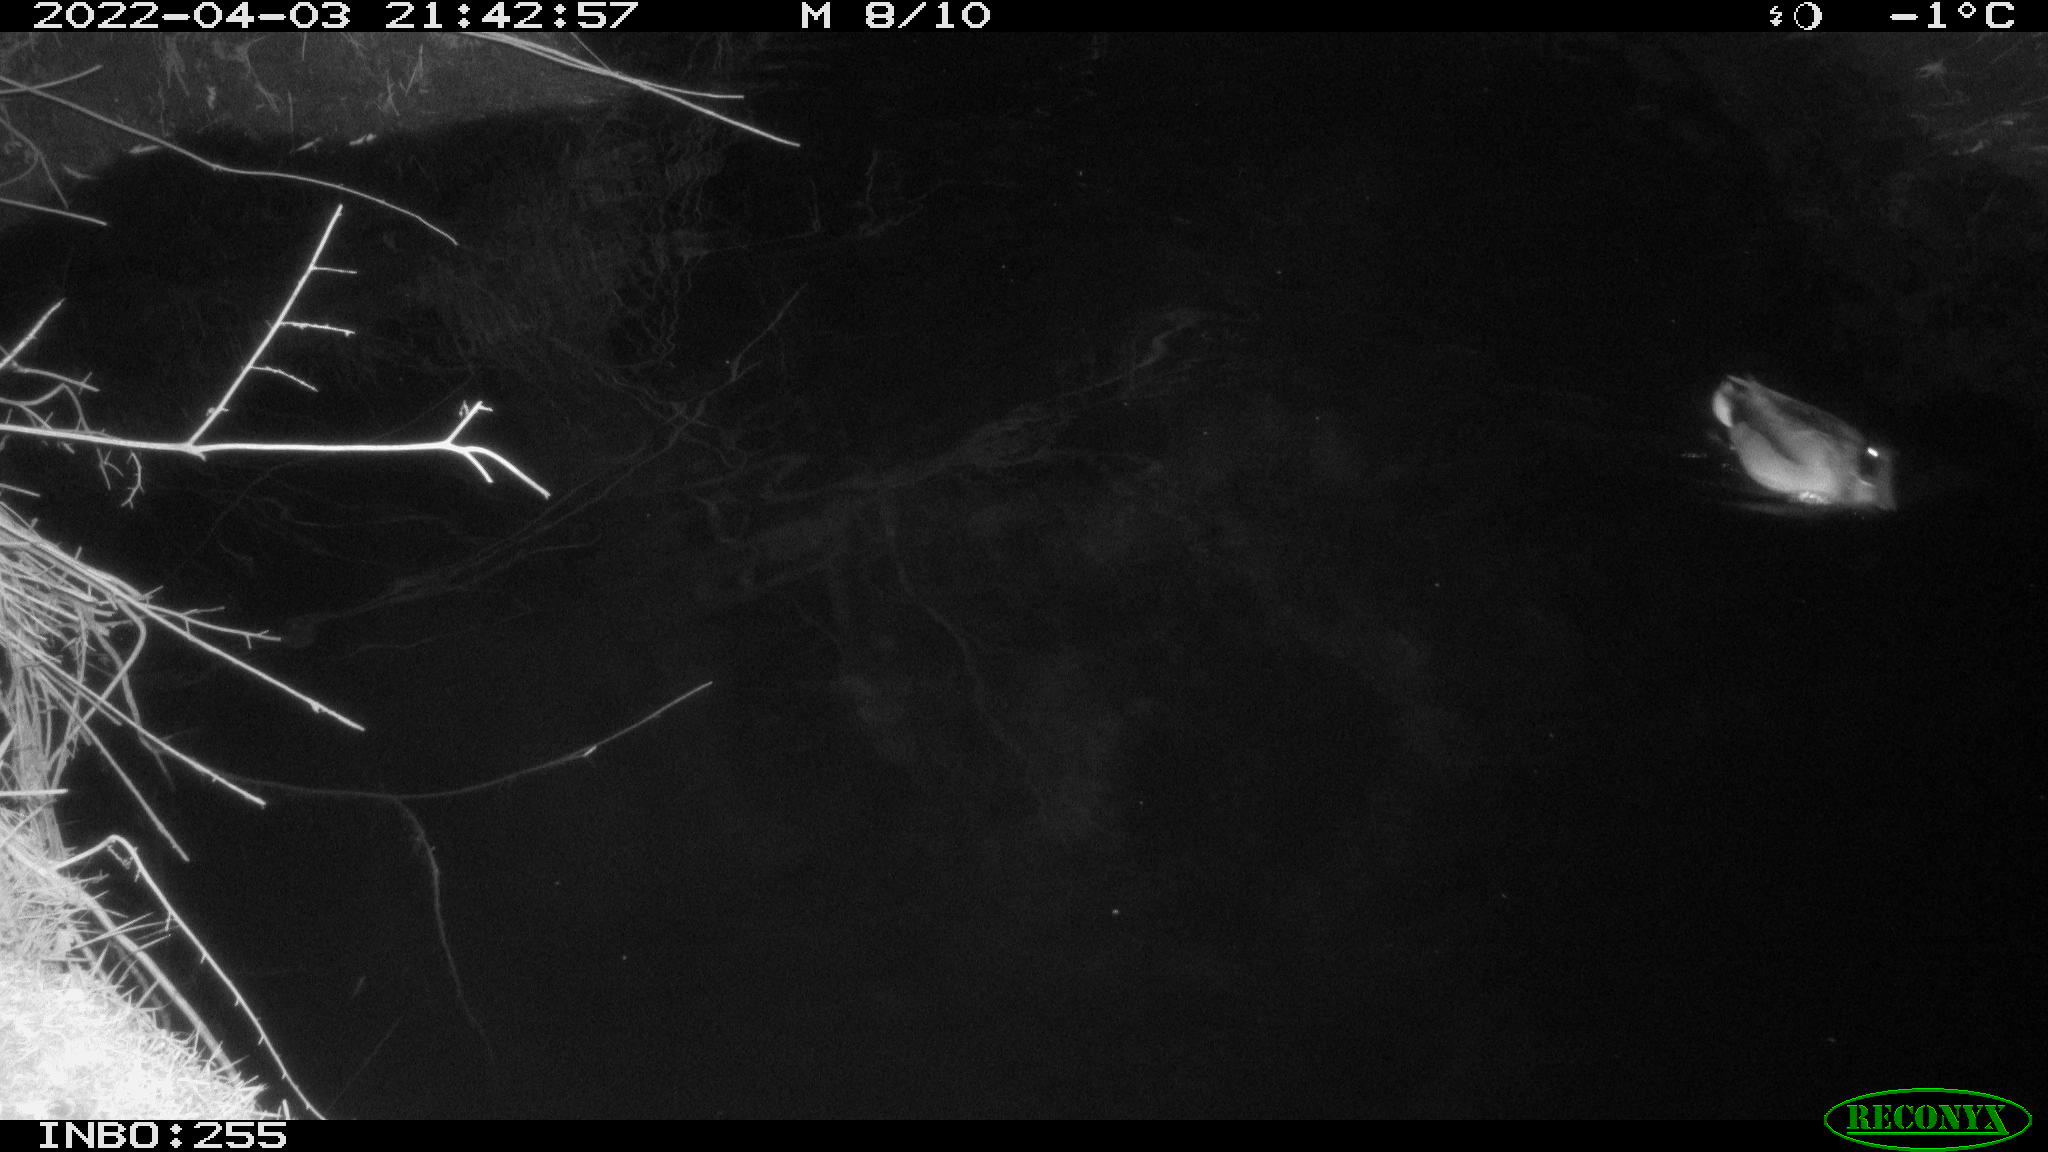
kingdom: Animalia
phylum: Chordata
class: Aves
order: Anseriformes
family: Anatidae
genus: Anas
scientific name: Anas platyrhynchos
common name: Mallard
